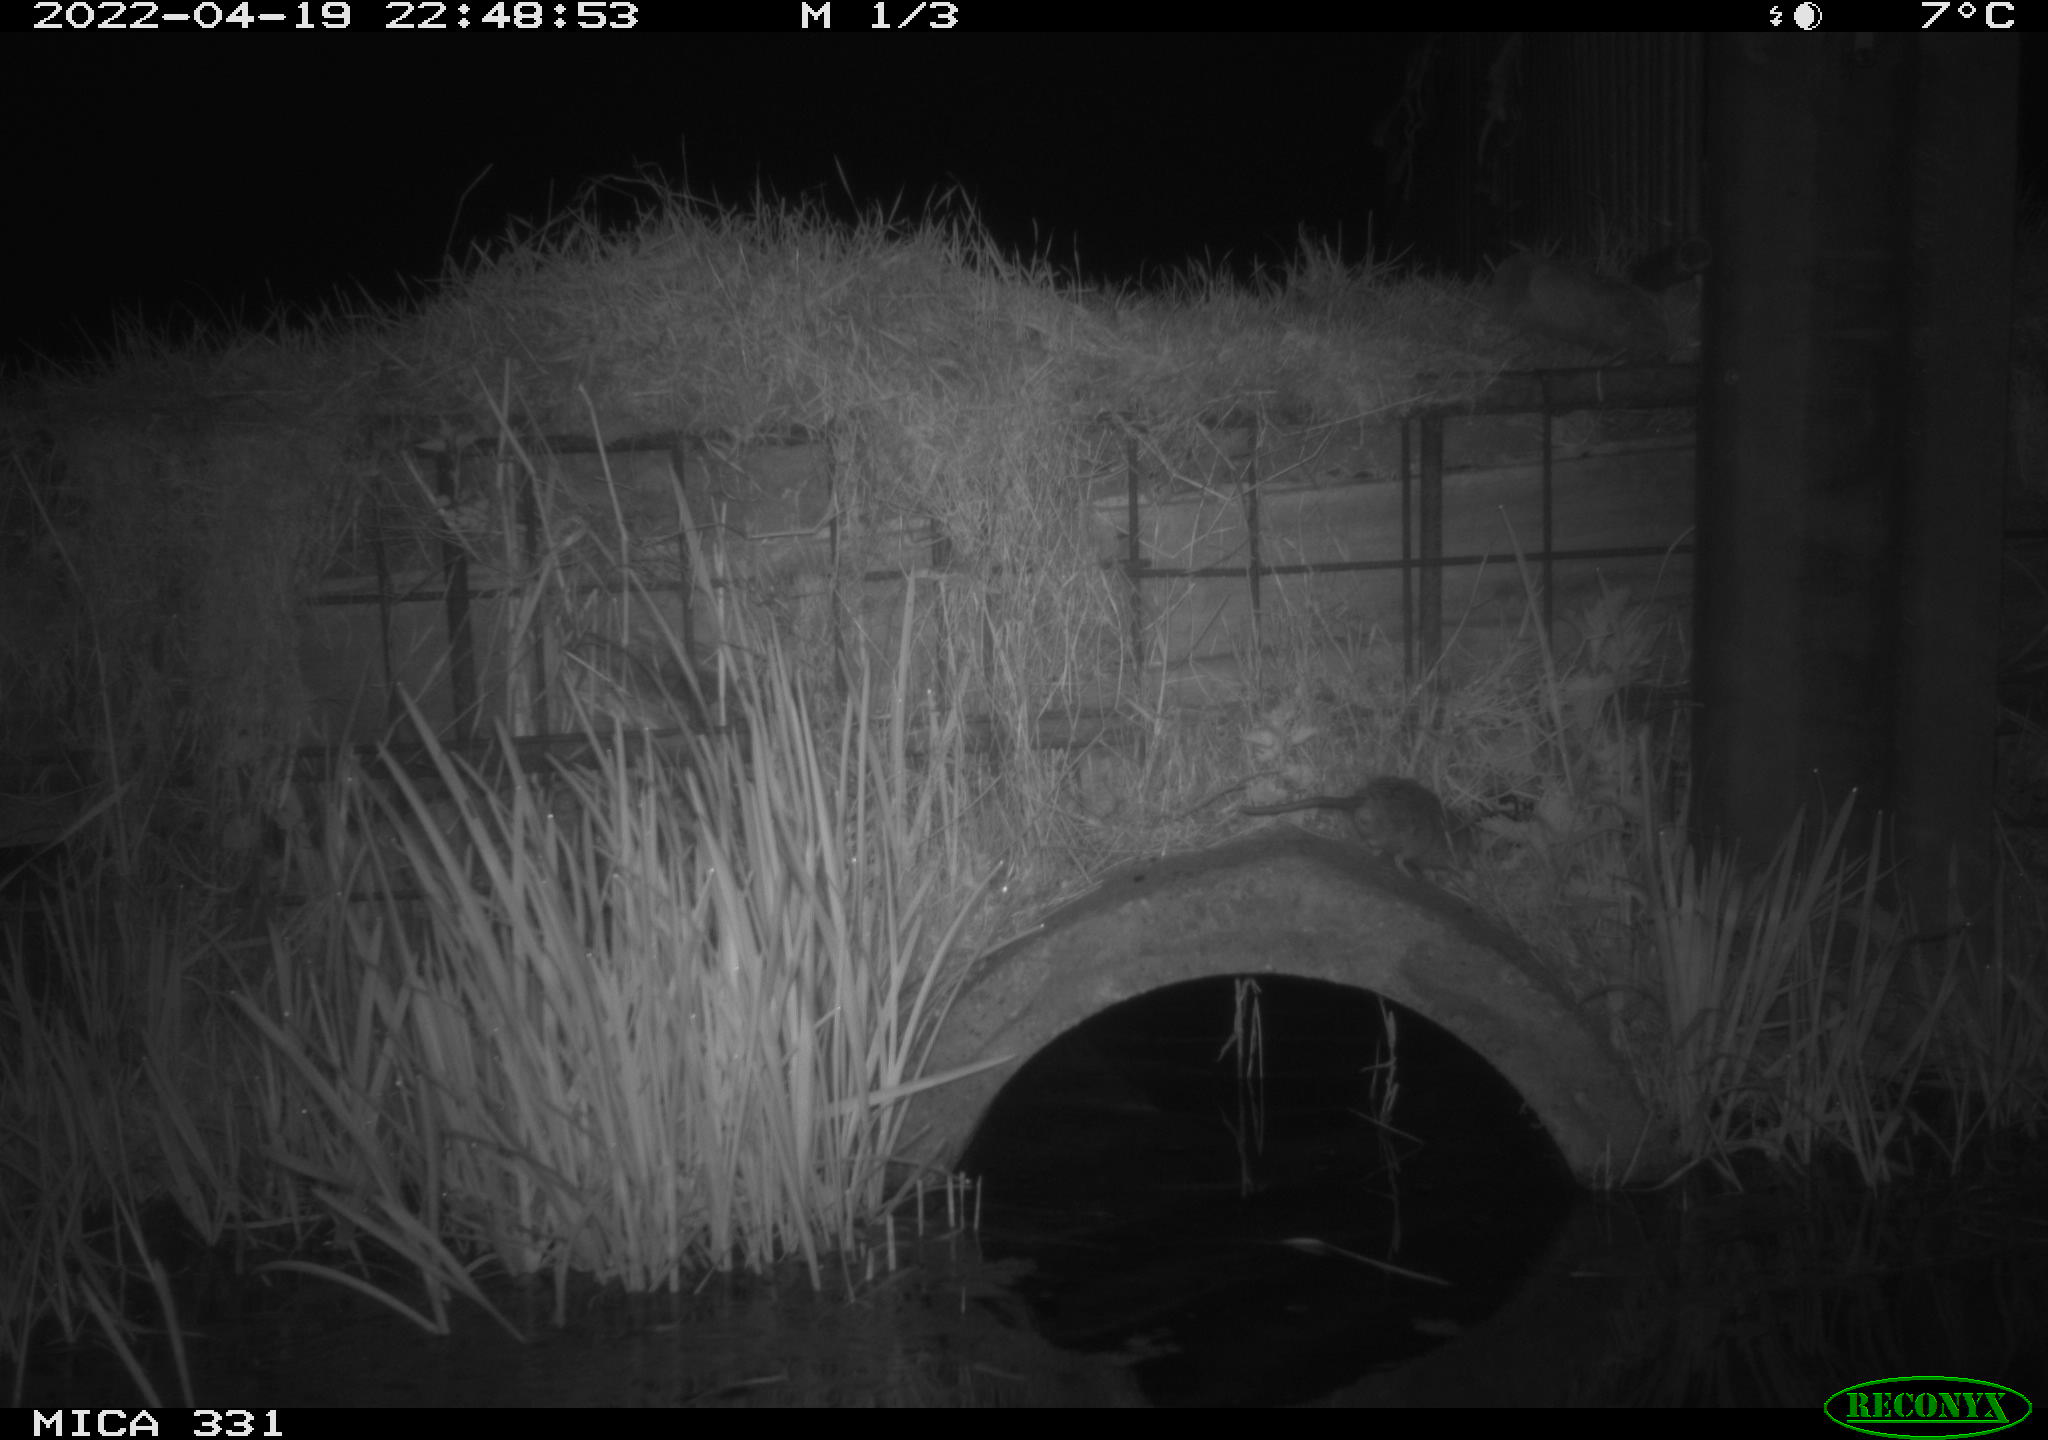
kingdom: Animalia
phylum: Chordata
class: Mammalia
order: Rodentia
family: Muridae
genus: Rattus
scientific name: Rattus norvegicus
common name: Brown rat
